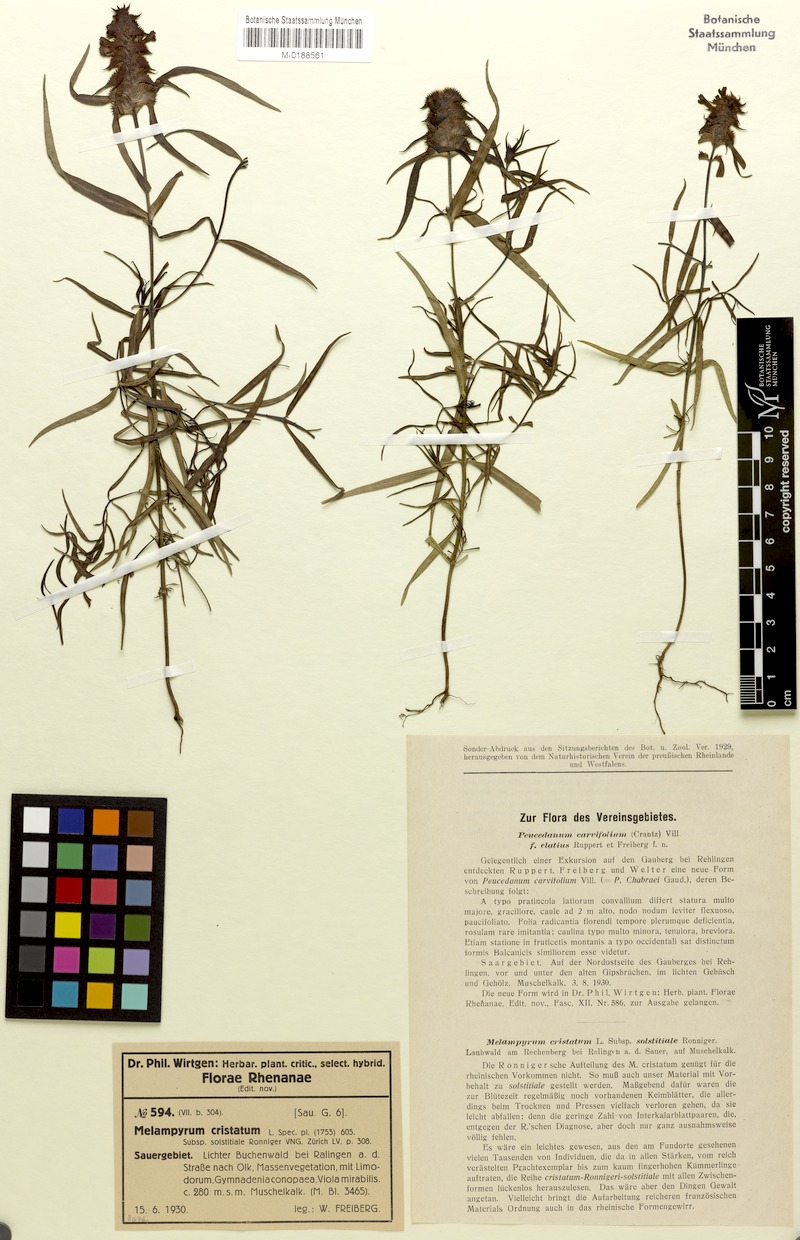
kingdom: Plantae
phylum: Tracheophyta
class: Magnoliopsida
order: Lamiales
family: Orobanchaceae
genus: Melampyrum
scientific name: Melampyrum cristatum
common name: Crested cow-wheat
